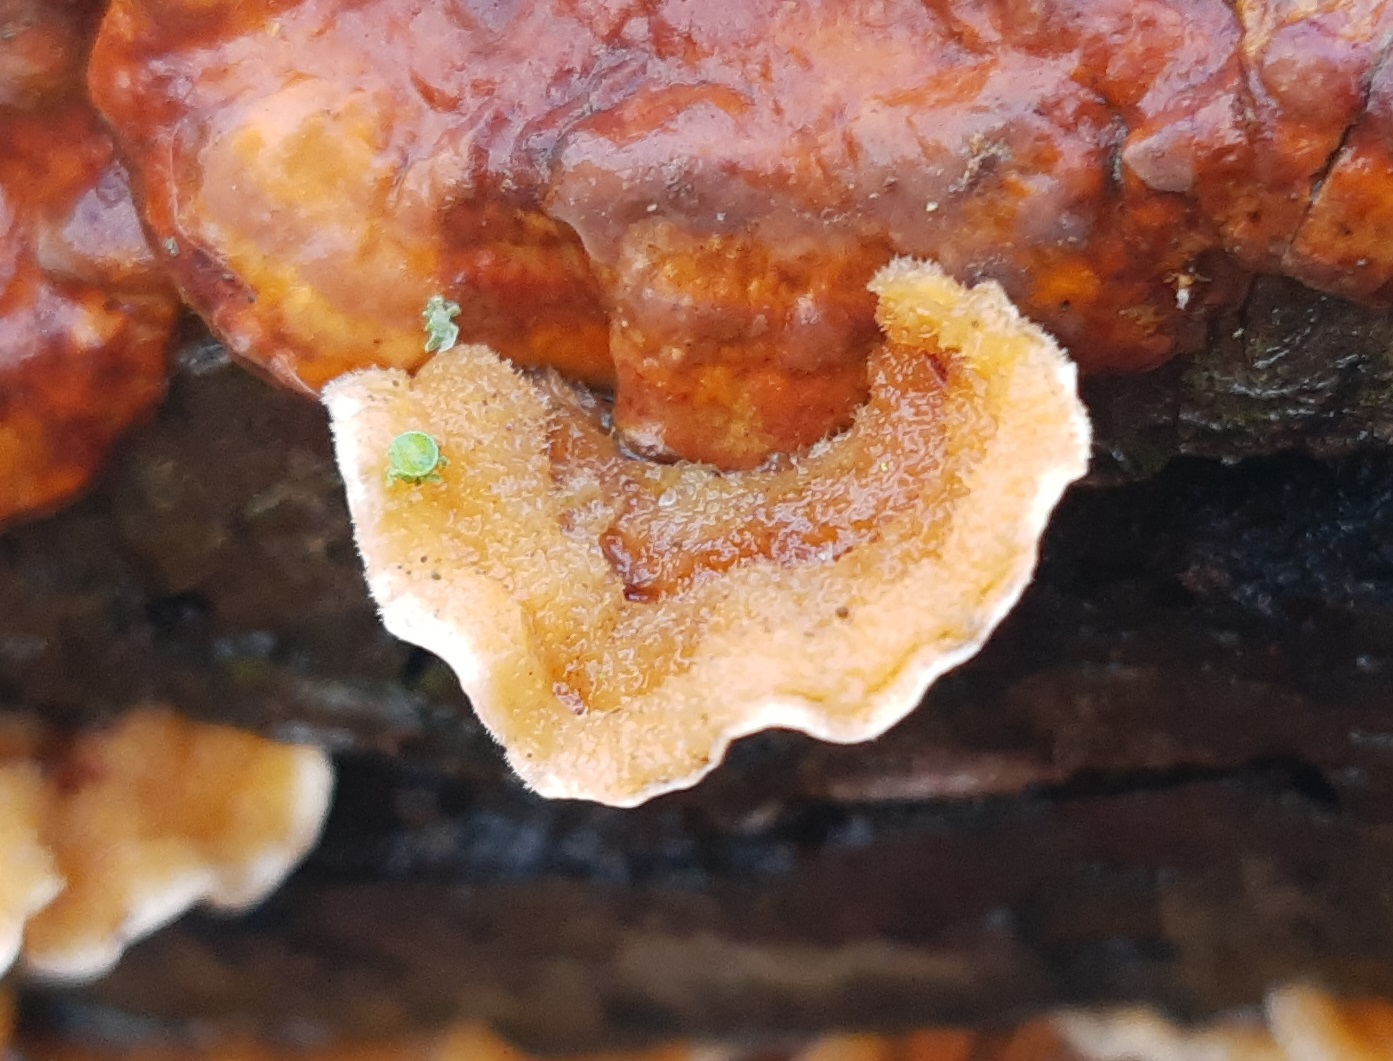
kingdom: Fungi
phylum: Basidiomycota
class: Agaricomycetes
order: Russulales
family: Stereaceae
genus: Stereum
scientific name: Stereum hirsutum
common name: håret lædersvamp
